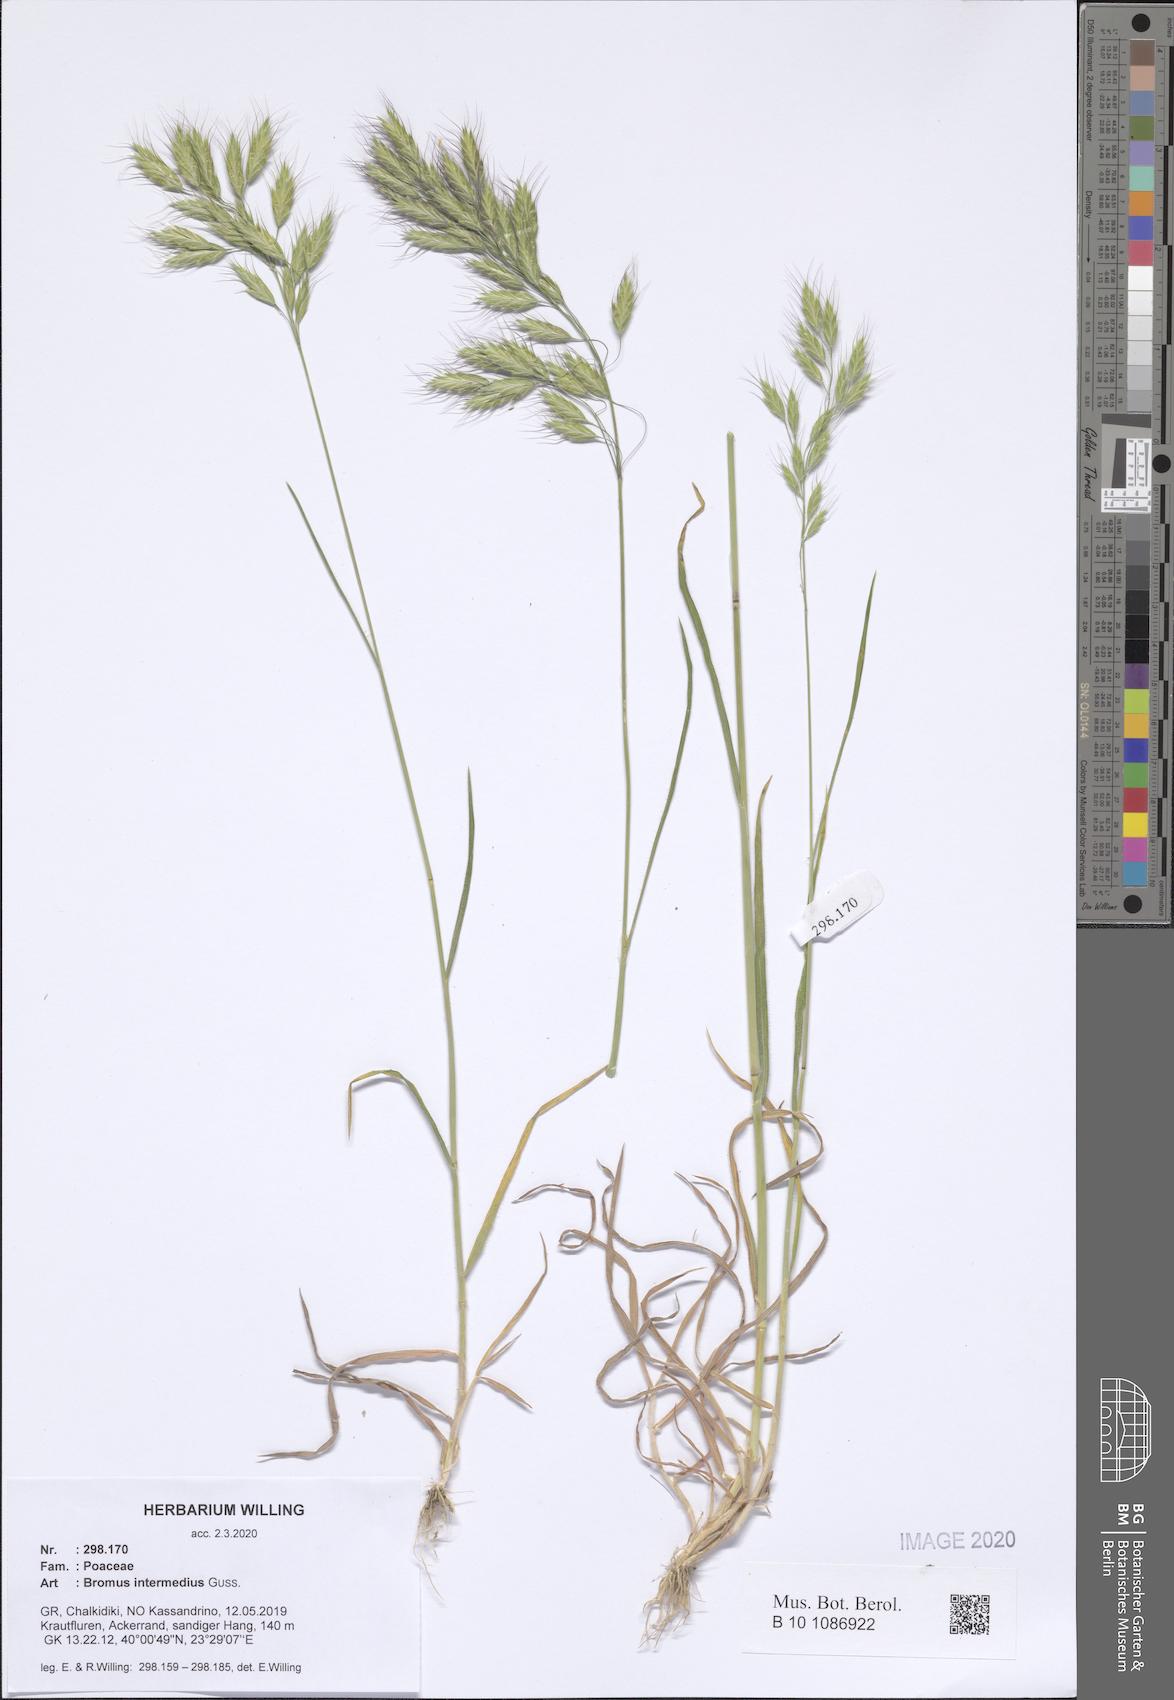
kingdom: Plantae
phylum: Tracheophyta
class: Liliopsida
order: Poales
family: Poaceae
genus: Bromus
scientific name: Bromus intermedius
